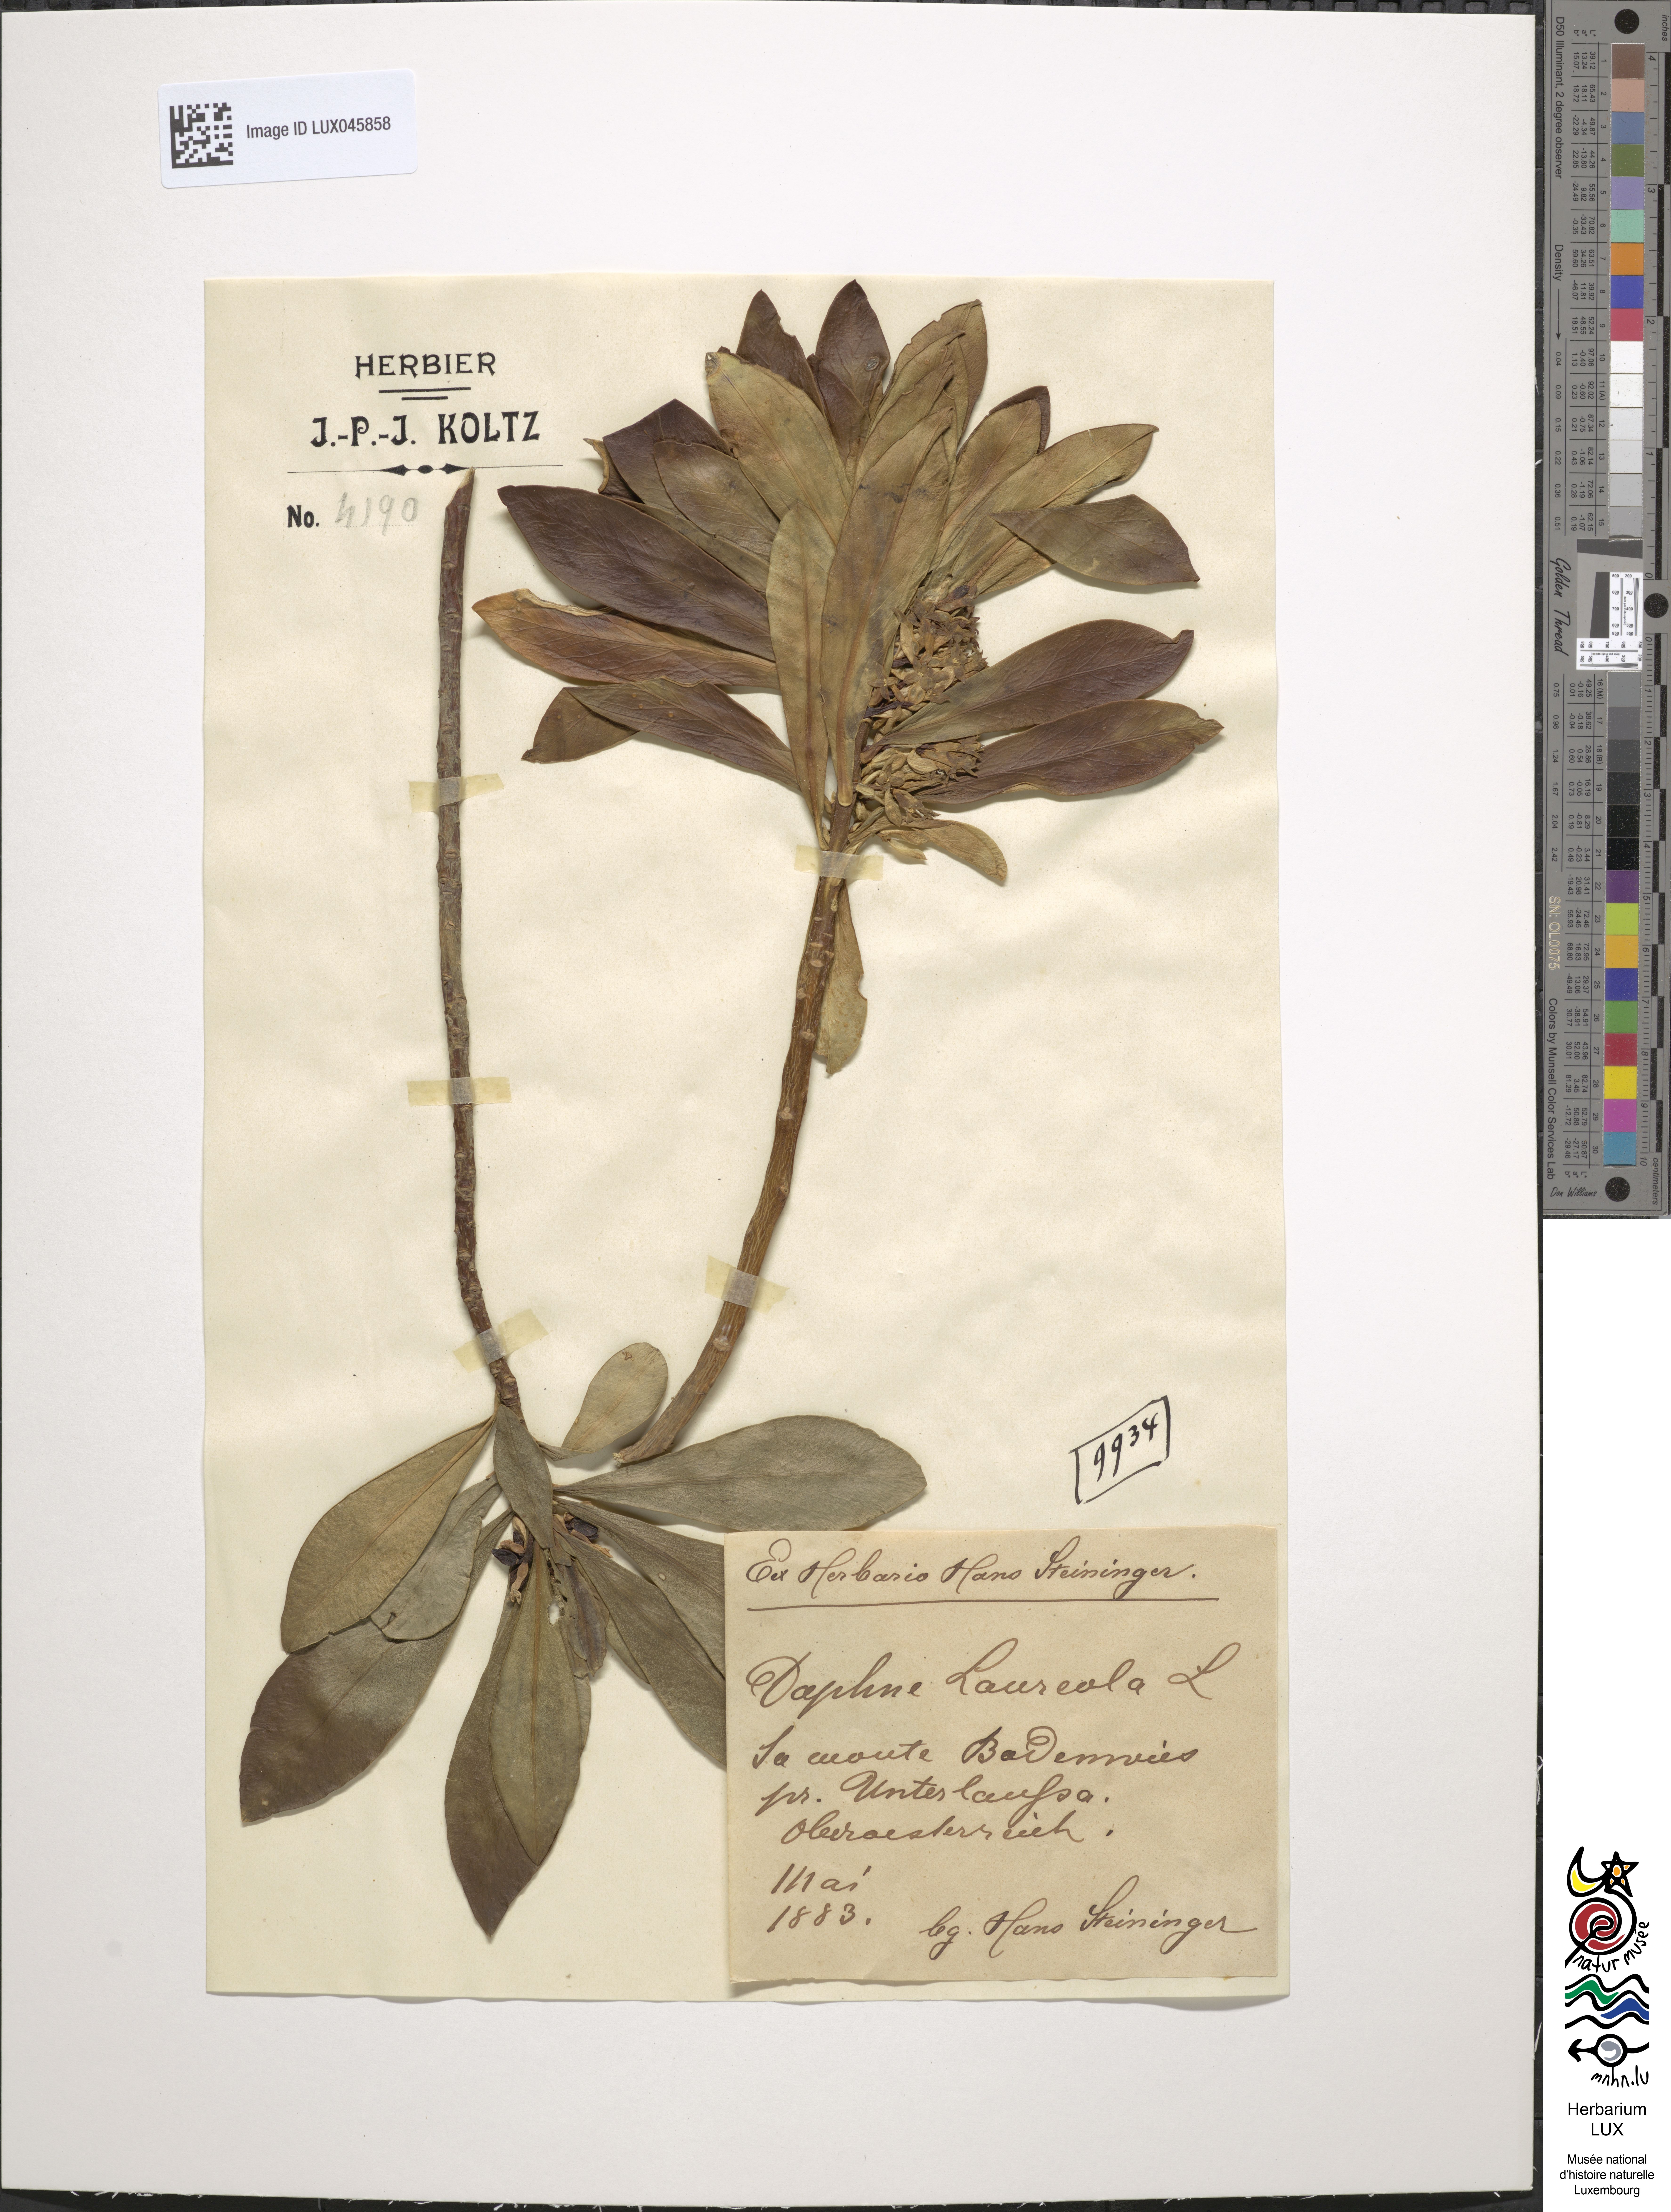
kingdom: Plantae
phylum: Tracheophyta
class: Magnoliopsida
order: Malvales
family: Thymelaeaceae
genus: Daphne
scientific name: Daphne laureola
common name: Spurge-laurel
